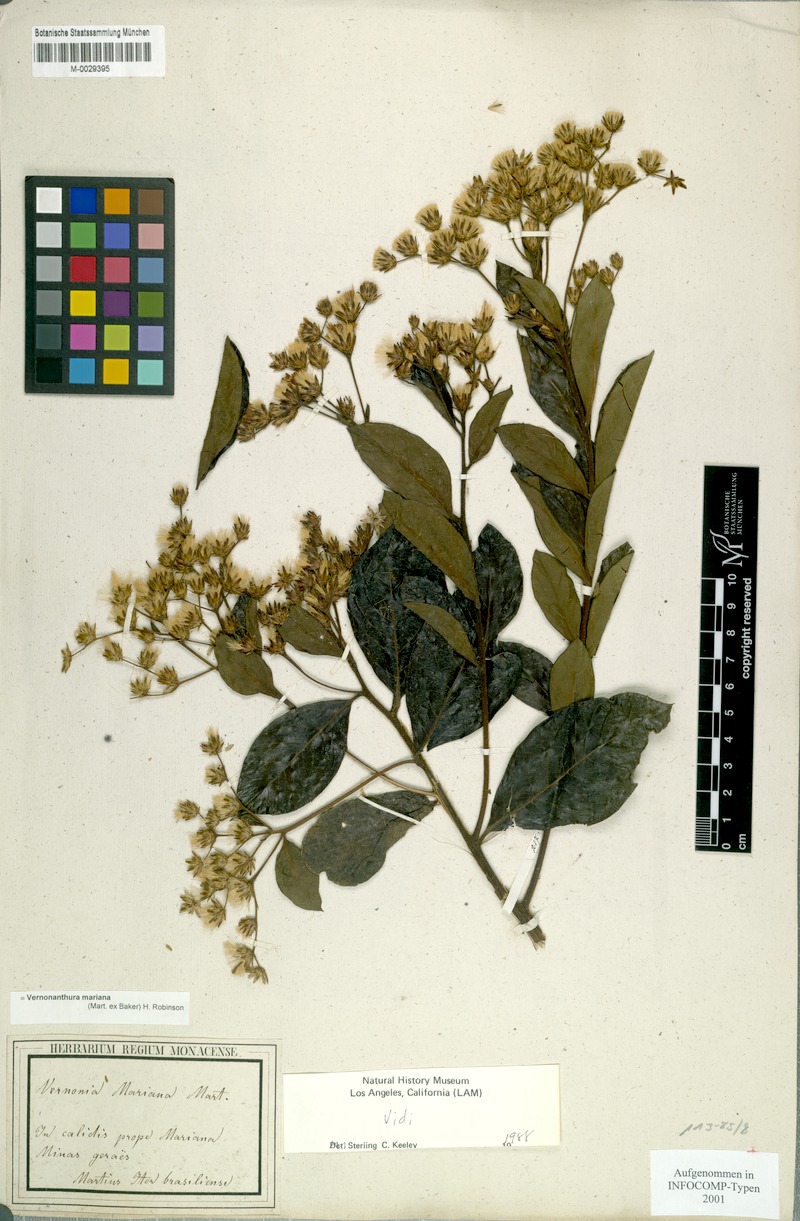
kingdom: Plantae
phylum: Tracheophyta
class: Magnoliopsida
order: Asterales
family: Asteraceae
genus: Vernonanthura
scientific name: Vernonanthura mariana
